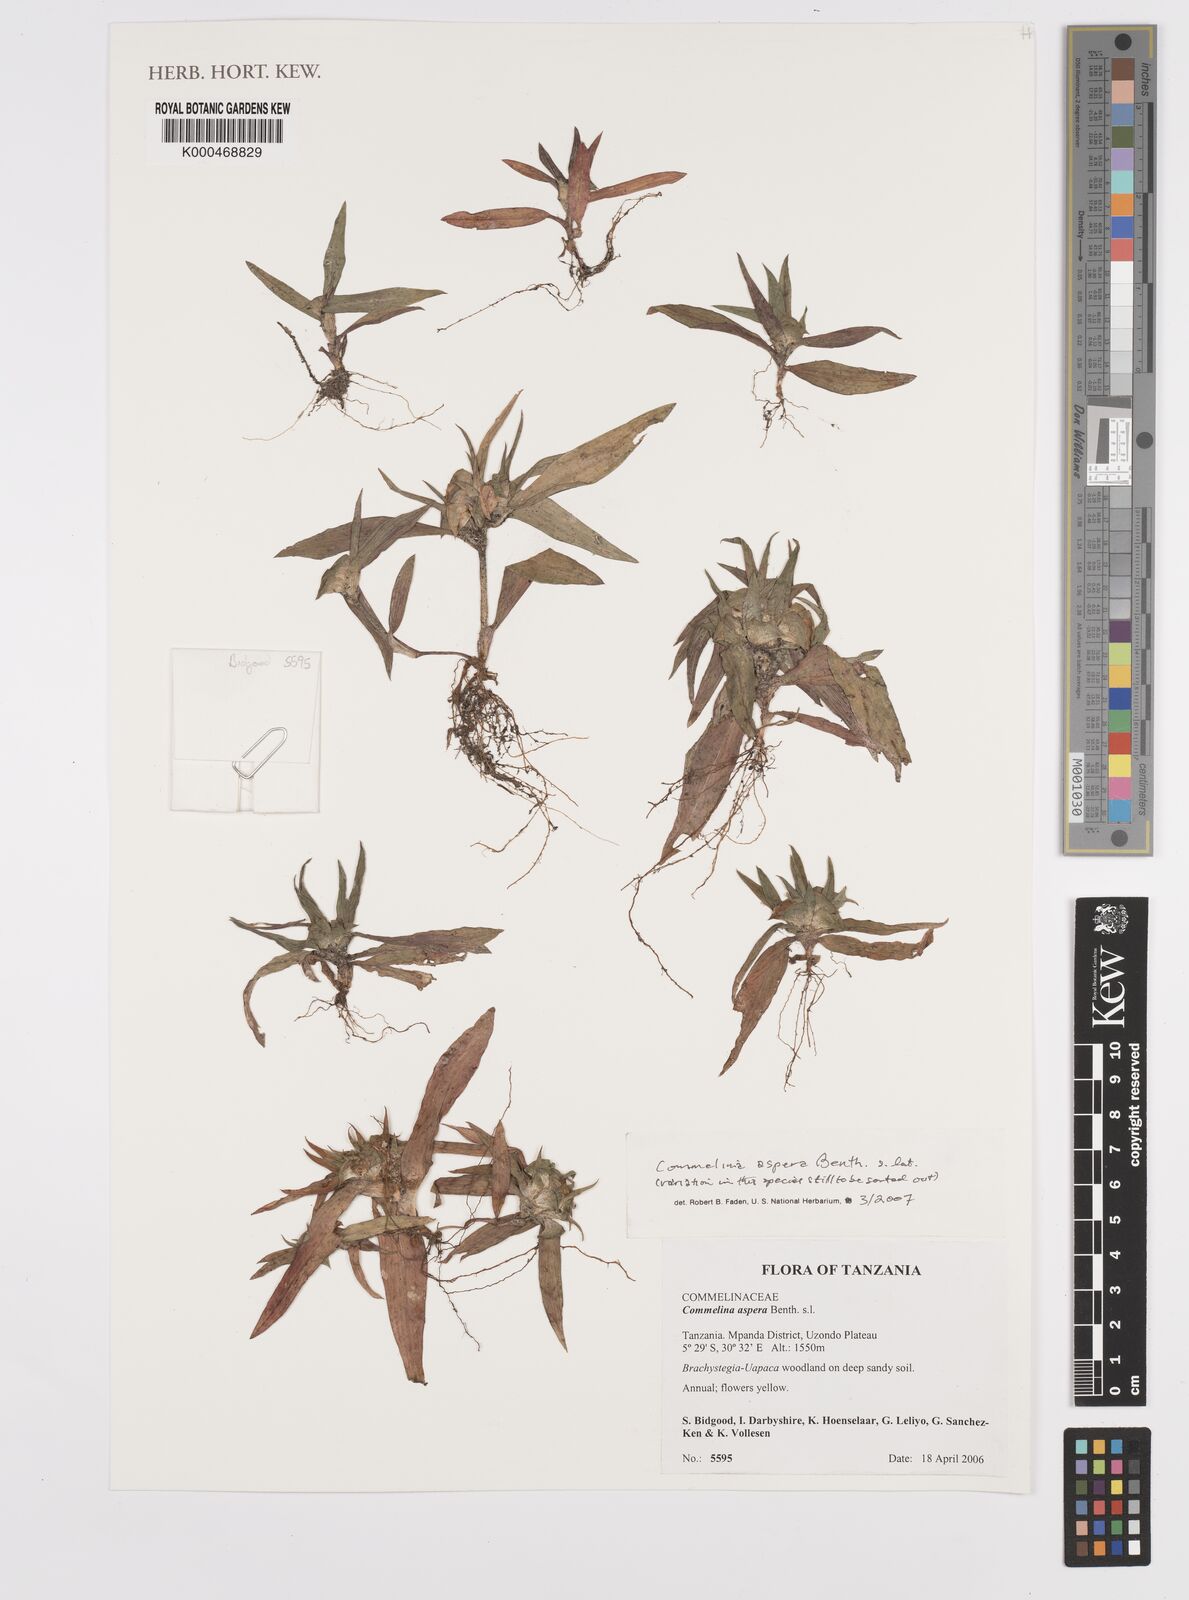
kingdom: Plantae
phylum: Tracheophyta
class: Liliopsida
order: Commelinales
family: Commelinaceae
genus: Commelina
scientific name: Commelina aspera
